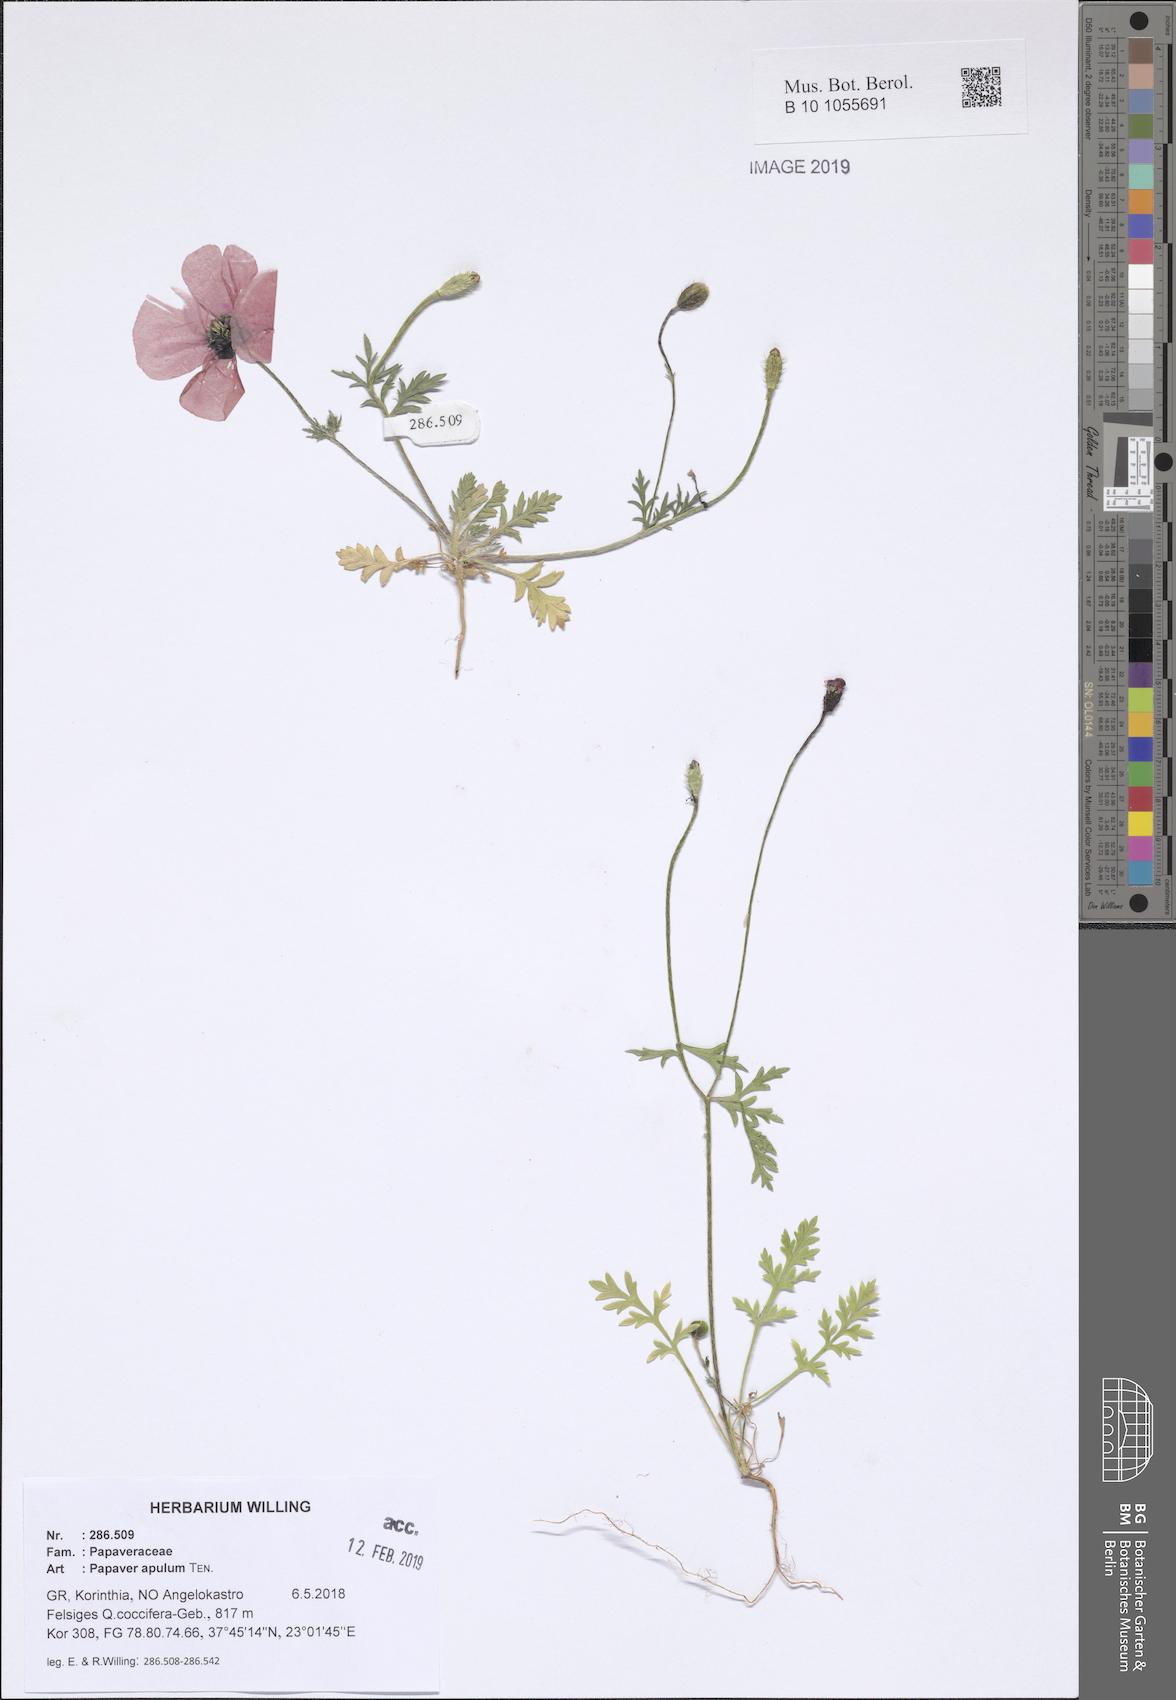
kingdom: Plantae
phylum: Tracheophyta
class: Magnoliopsida
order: Ranunculales
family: Papaveraceae
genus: Roemeria
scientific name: Roemeria apula
